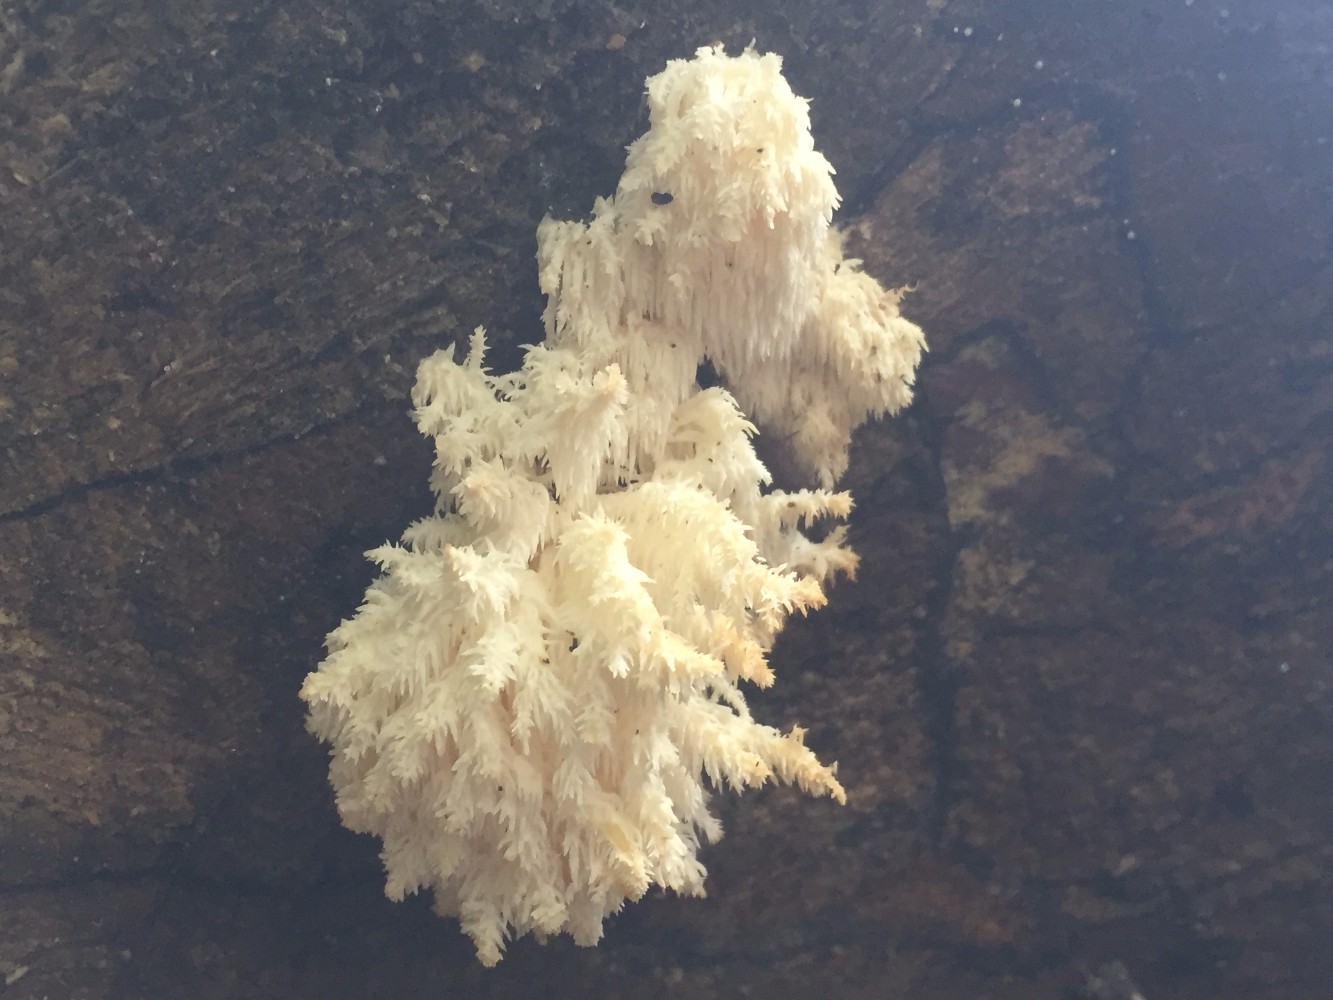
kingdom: Fungi
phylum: Basidiomycota
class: Agaricomycetes
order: Russulales
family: Hericiaceae
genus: Hericium
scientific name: Hericium coralloides
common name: koralpigsvamp
